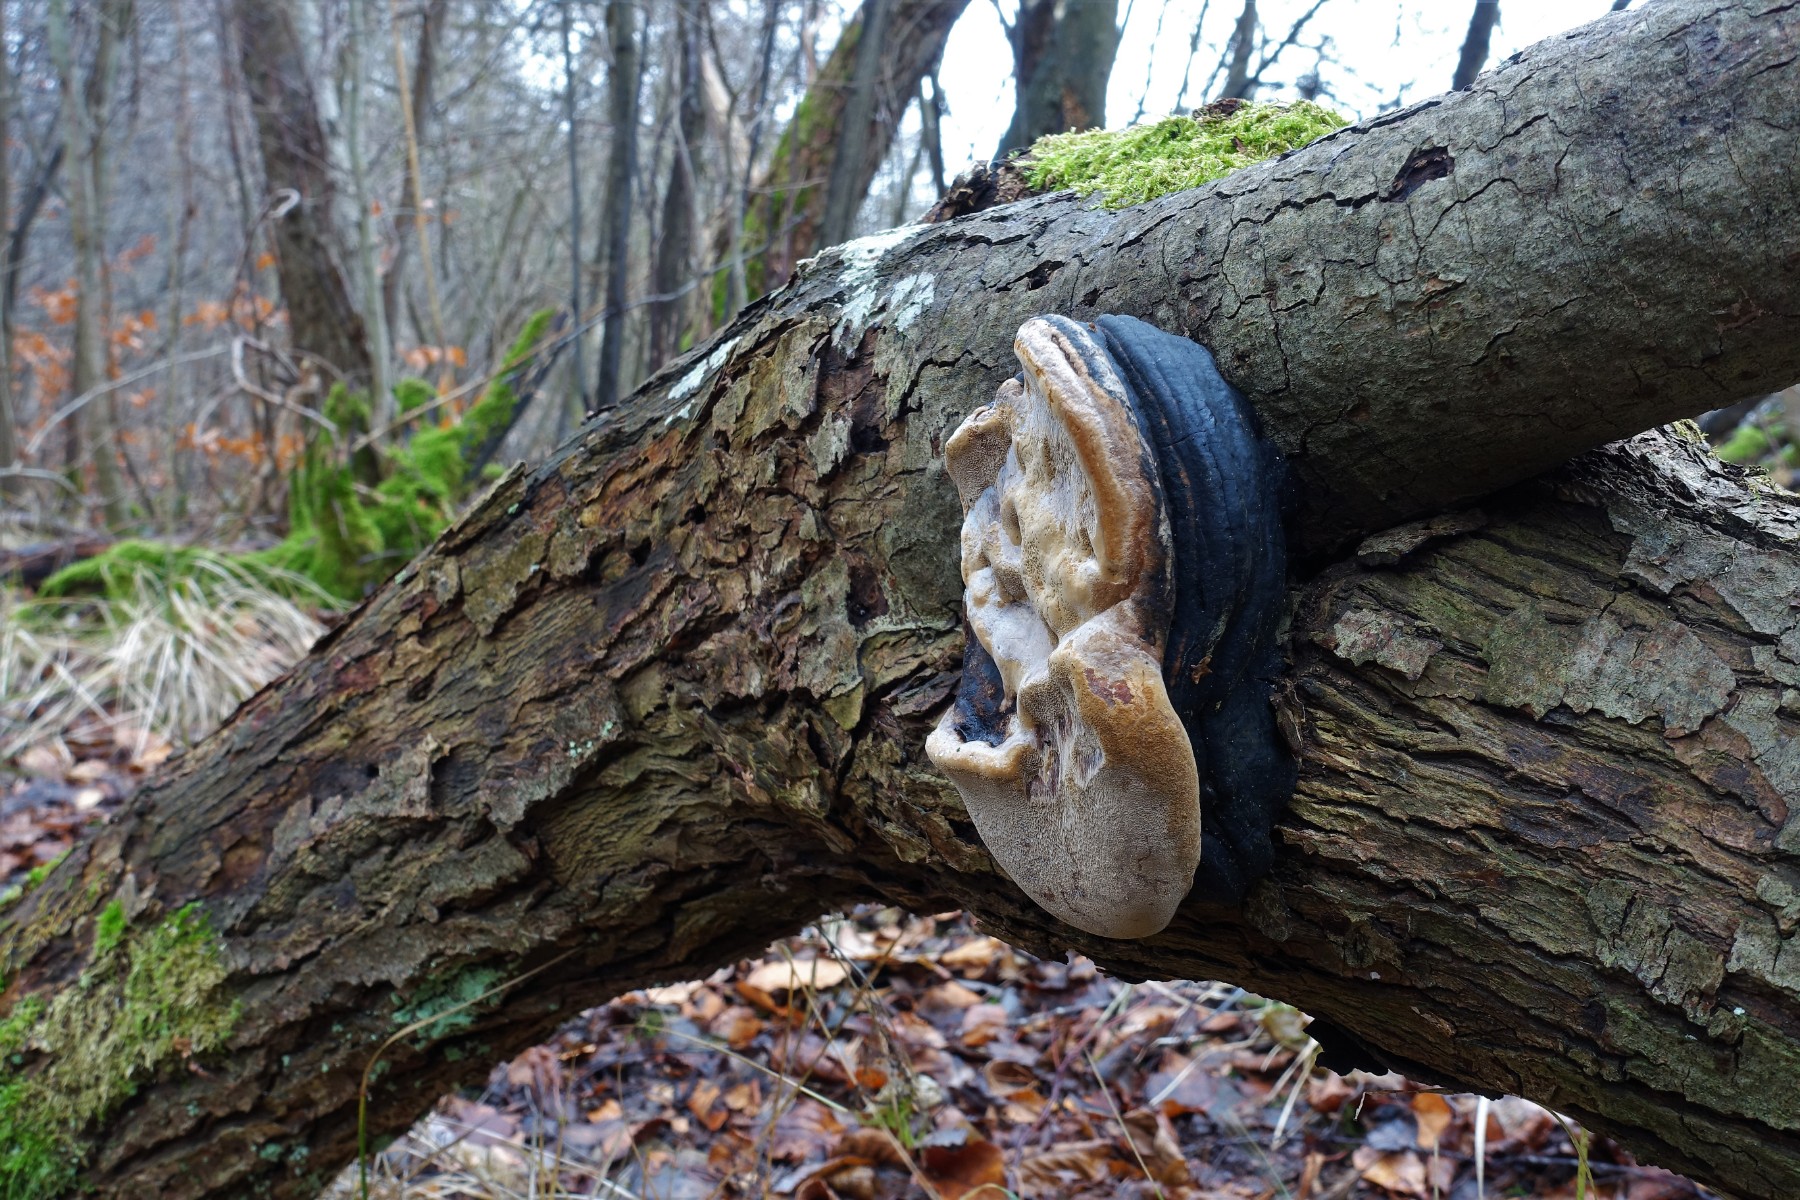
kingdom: Fungi
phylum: Basidiomycota
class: Agaricomycetes
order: Hymenochaetales
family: Hymenochaetaceae
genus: Phellinus
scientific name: Phellinus igniarius
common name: almindelig ildporesvamp
